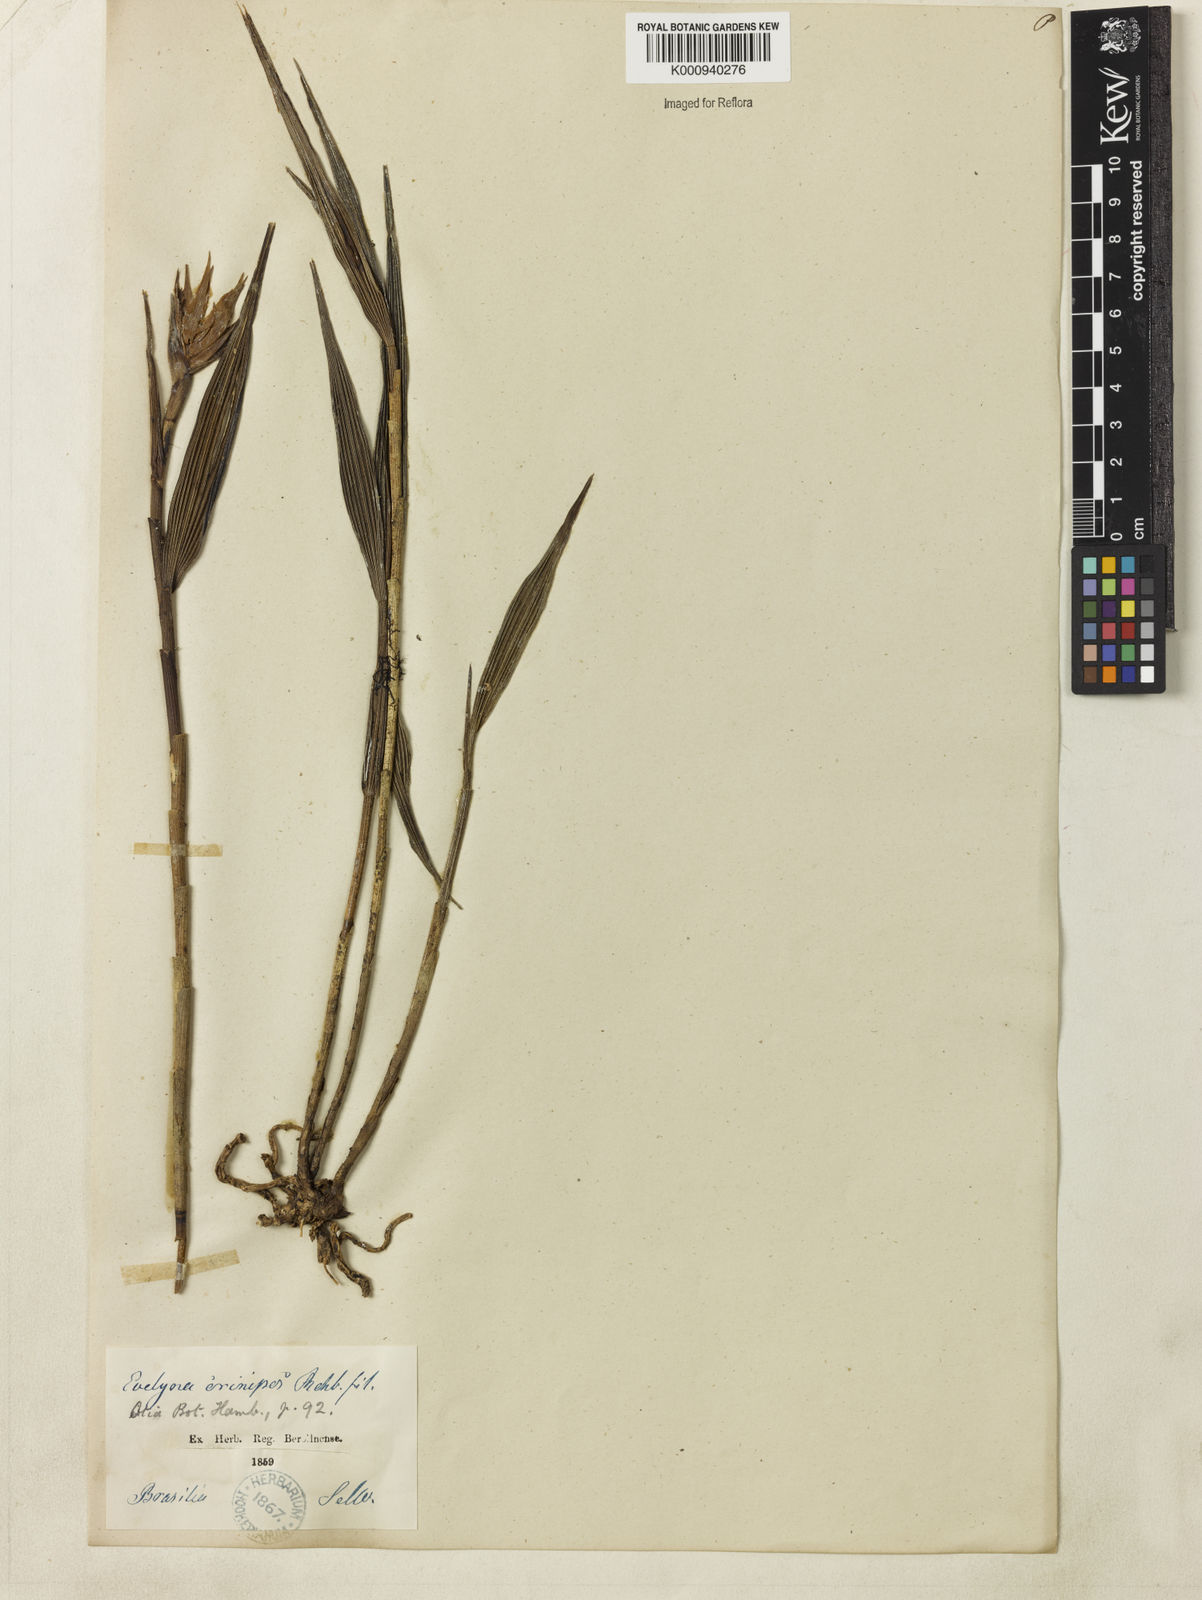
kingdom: Plantae
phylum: Tracheophyta
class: Liliopsida
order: Asparagales
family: Orchidaceae
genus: Elleanthus
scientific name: Elleanthus crinipes
